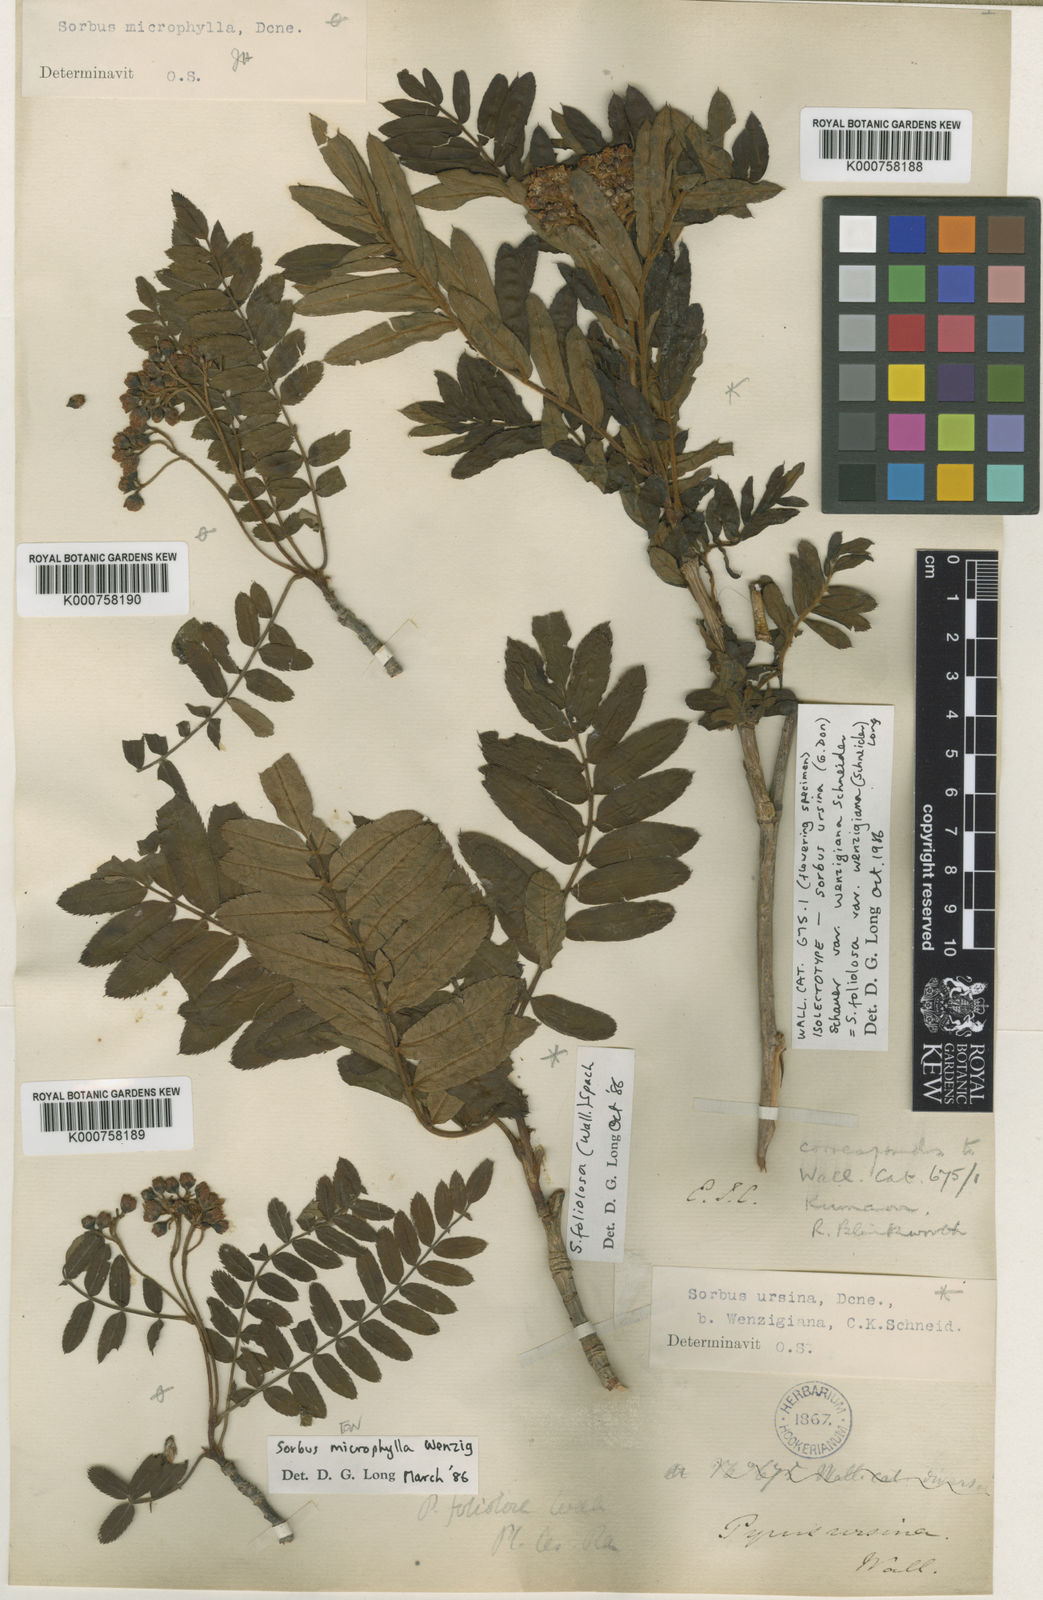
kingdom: Plantae
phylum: Tracheophyta
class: Magnoliopsida
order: Rosales
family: Rosaceae
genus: Sorbus
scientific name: Sorbus foliolosa
